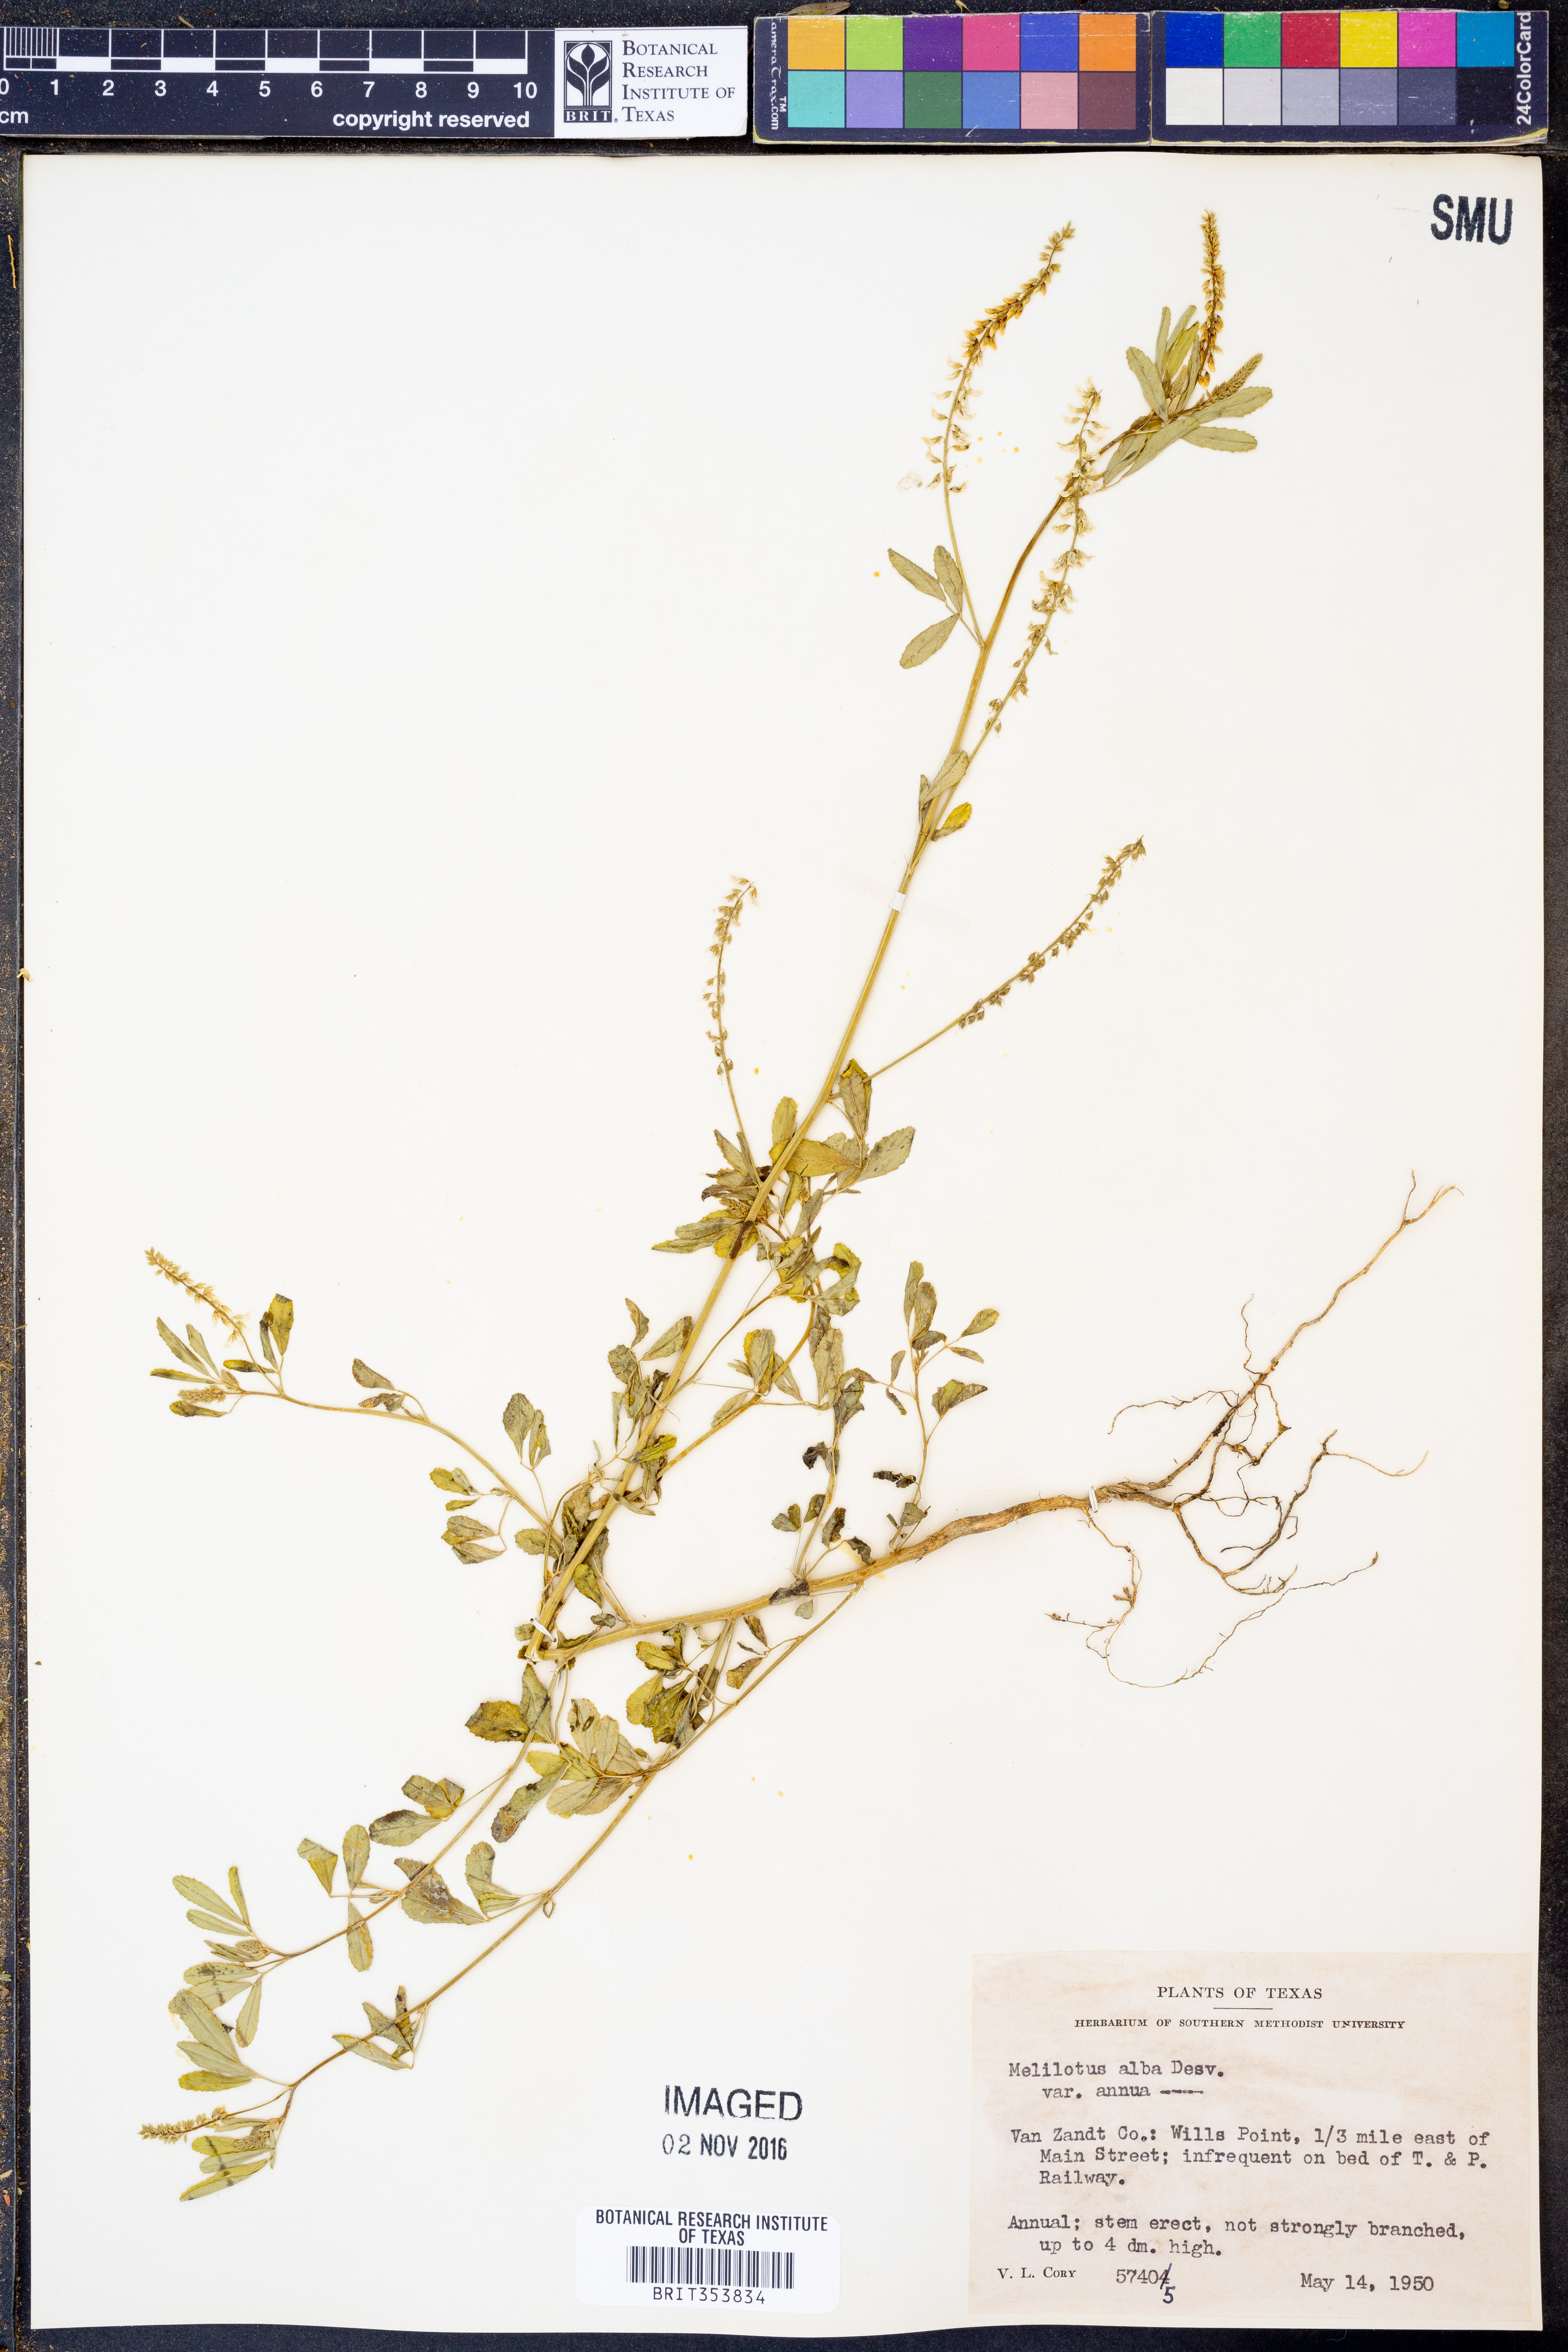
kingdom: Plantae
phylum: Tracheophyta
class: Magnoliopsida
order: Fabales
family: Fabaceae
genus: Melilotus
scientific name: Melilotus albus
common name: White melilot
